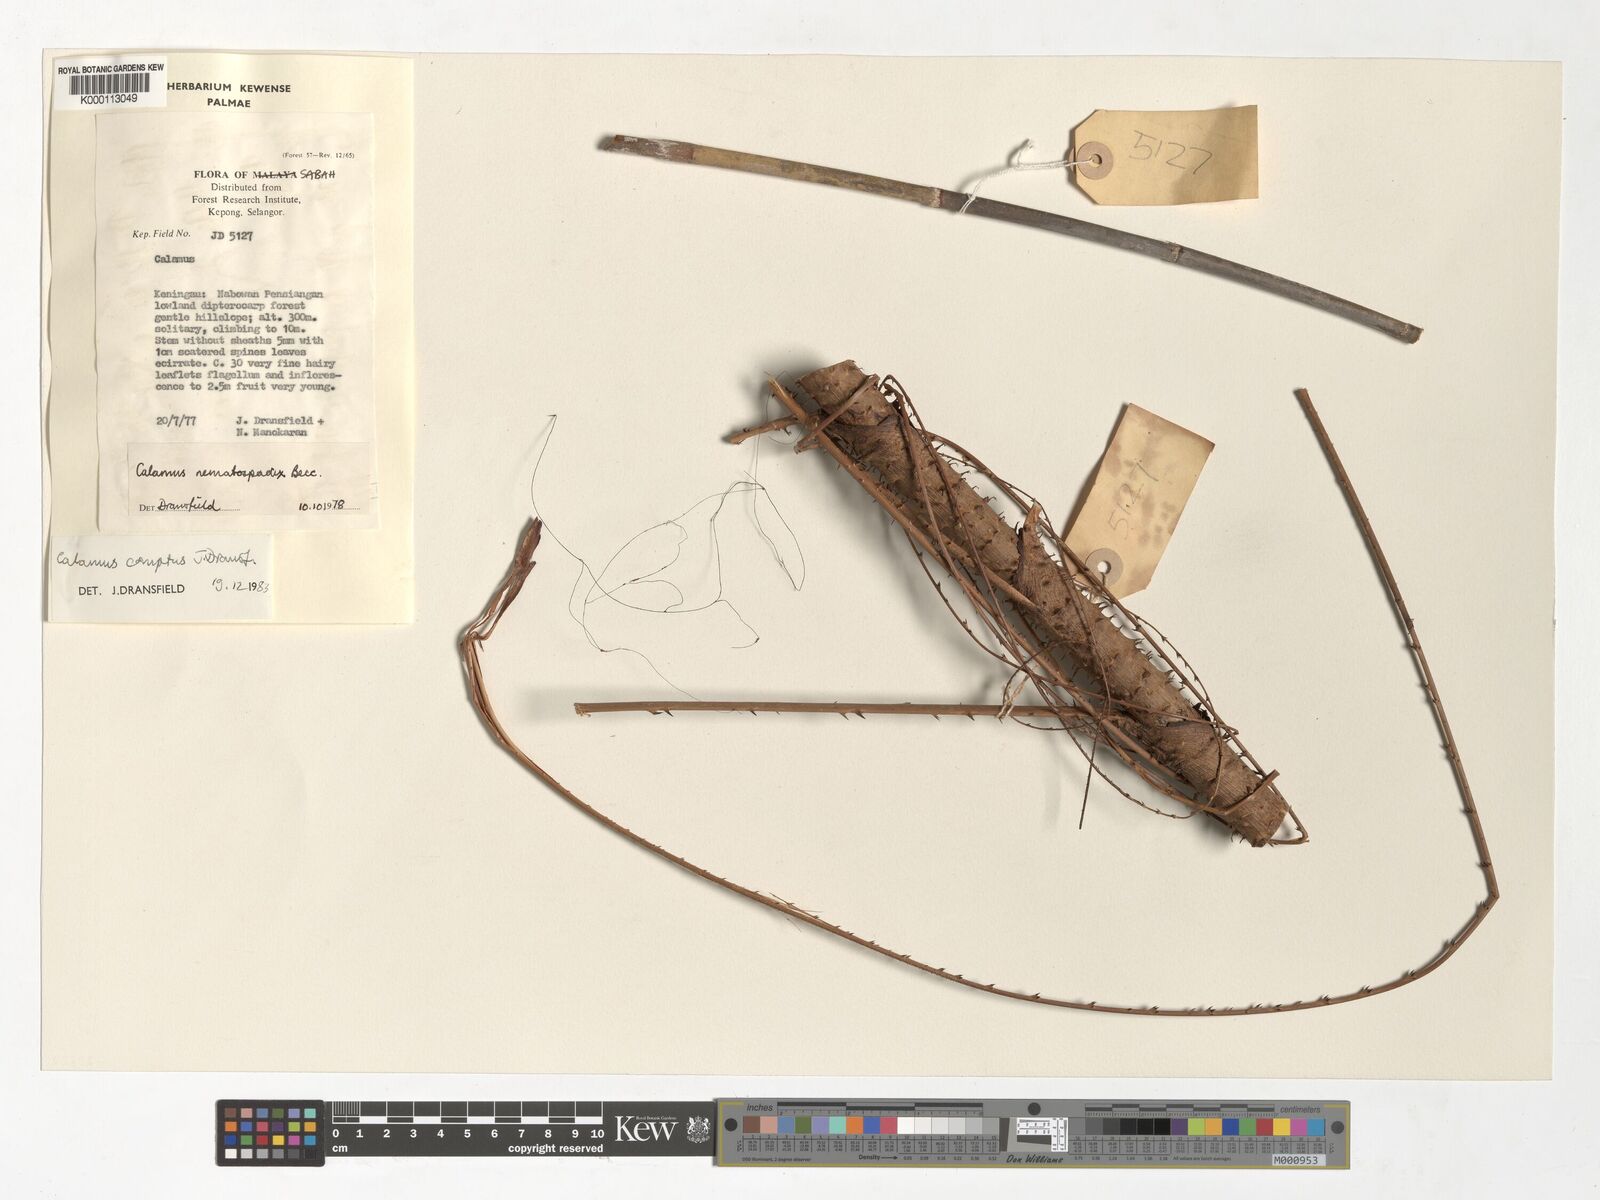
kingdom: Plantae
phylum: Tracheophyta
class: Liliopsida
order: Arecales
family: Arecaceae
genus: Calamus
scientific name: Calamus comptus
